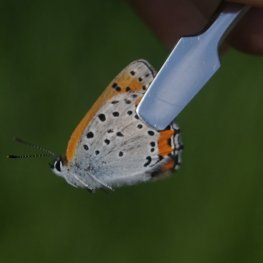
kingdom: Animalia
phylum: Arthropoda
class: Insecta
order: Lepidoptera
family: Sesiidae
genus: Sesia
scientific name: Sesia Lycaena hyllus
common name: Bronze Copper
